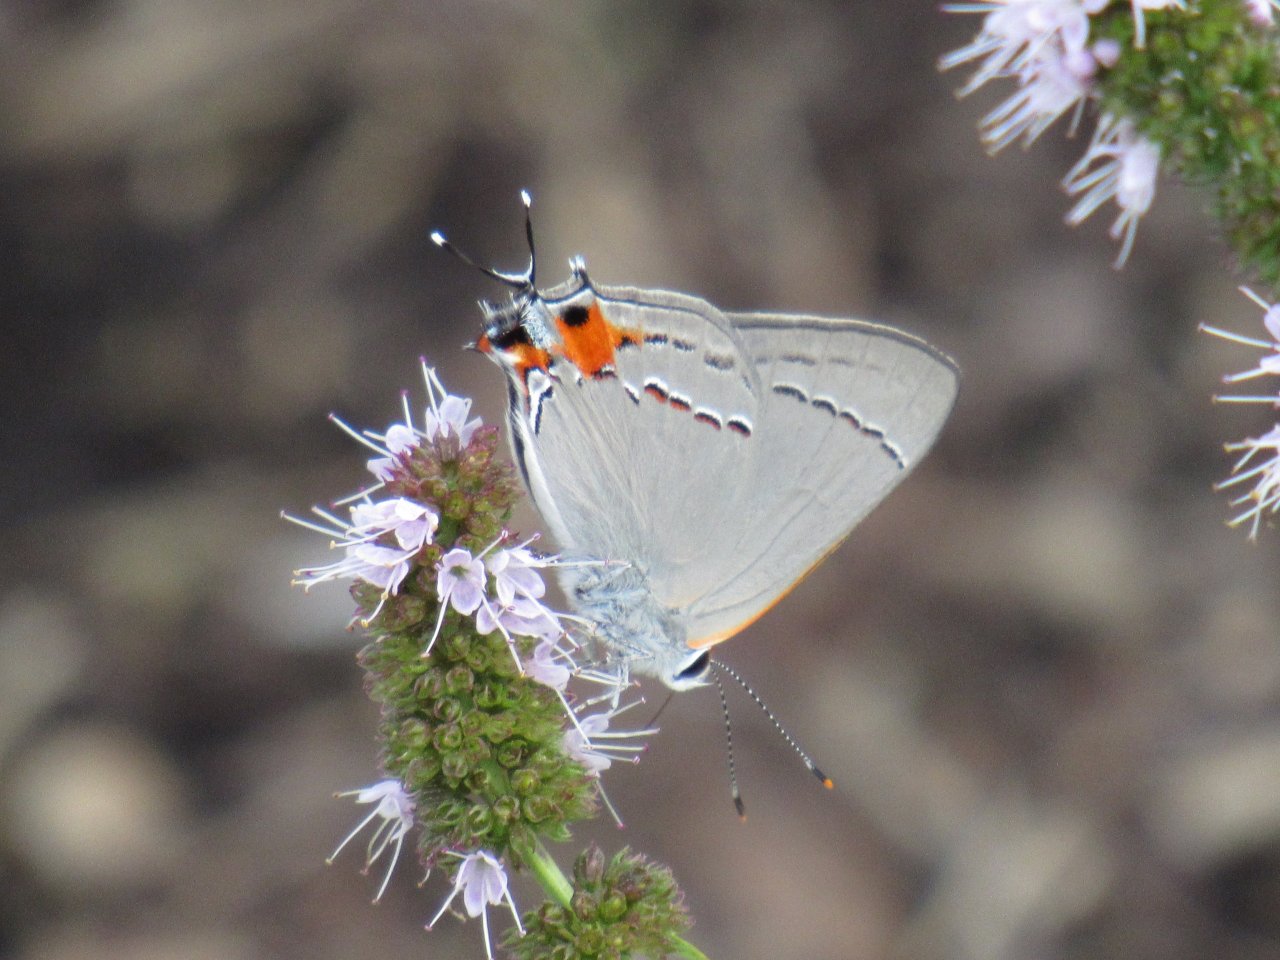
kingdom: Animalia
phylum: Arthropoda
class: Insecta
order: Lepidoptera
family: Lycaenidae
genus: Strymon
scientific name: Strymon melinus
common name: Gray Hairstreak
